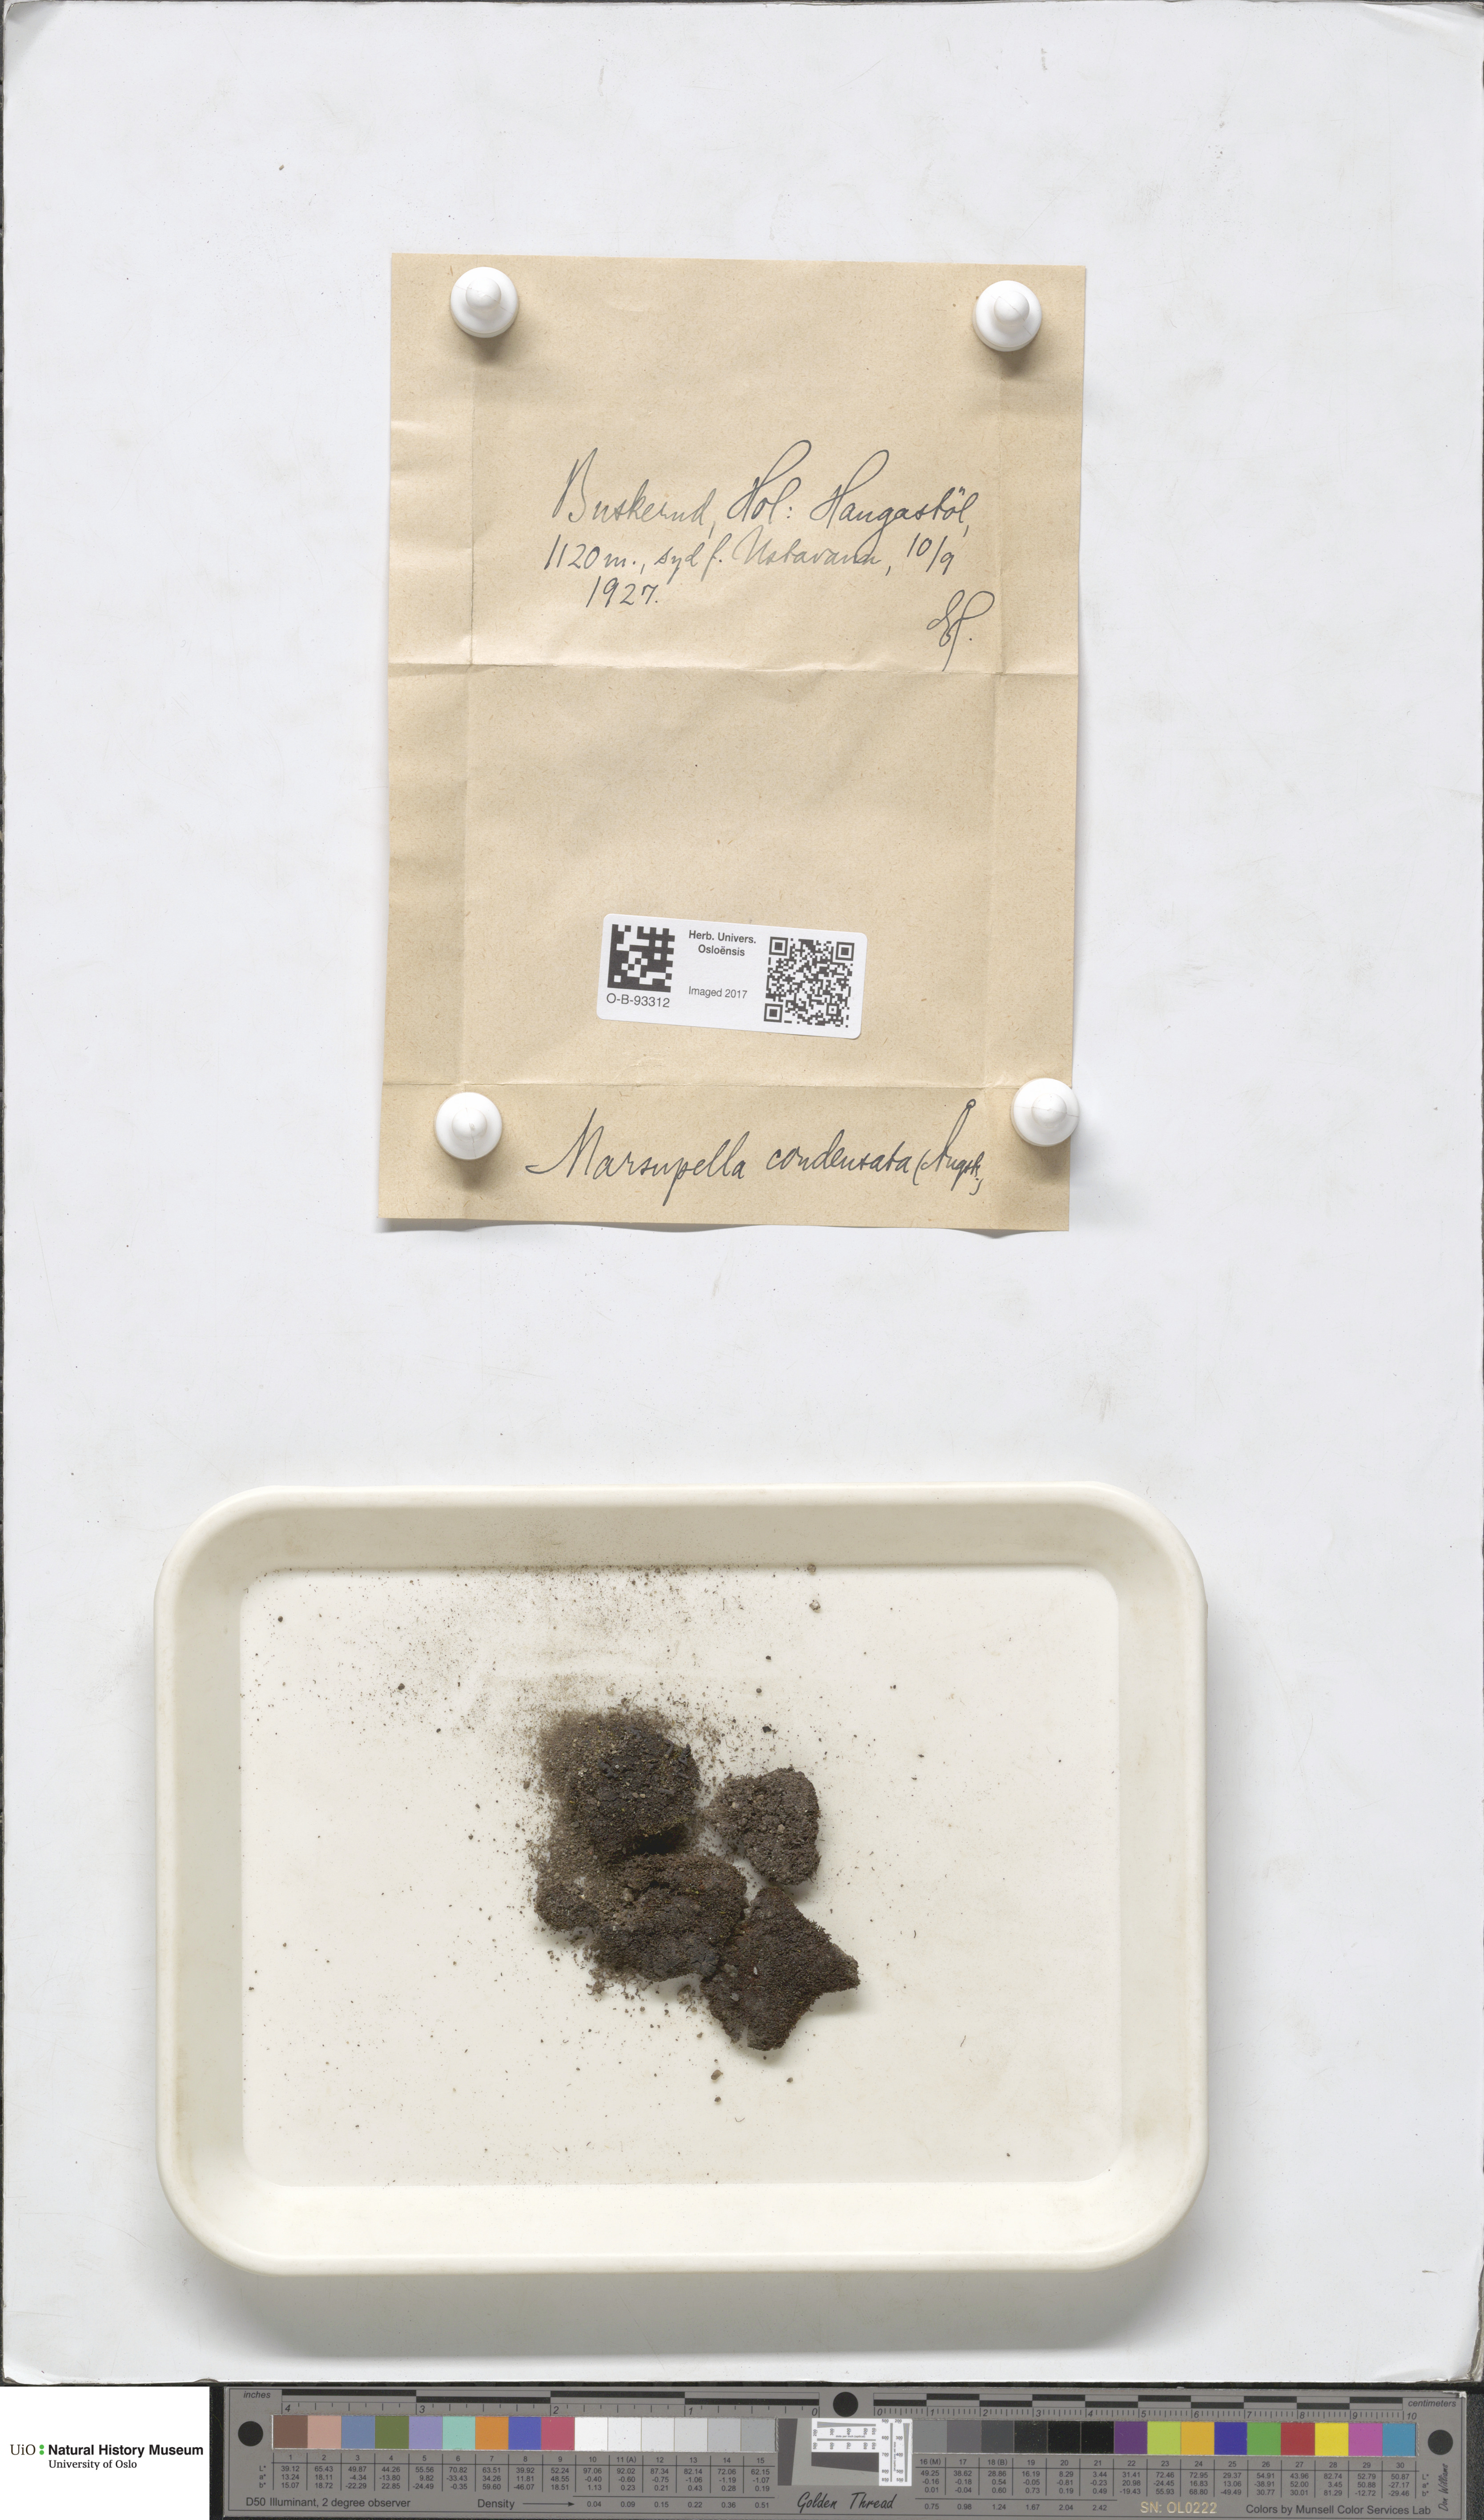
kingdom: Plantae
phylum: Marchantiophyta
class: Jungermanniopsida
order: Jungermanniales
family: Gymnomitriaceae
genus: Gymnomitrion
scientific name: Gymnomitrion brevissimum
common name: Snow rustwort
